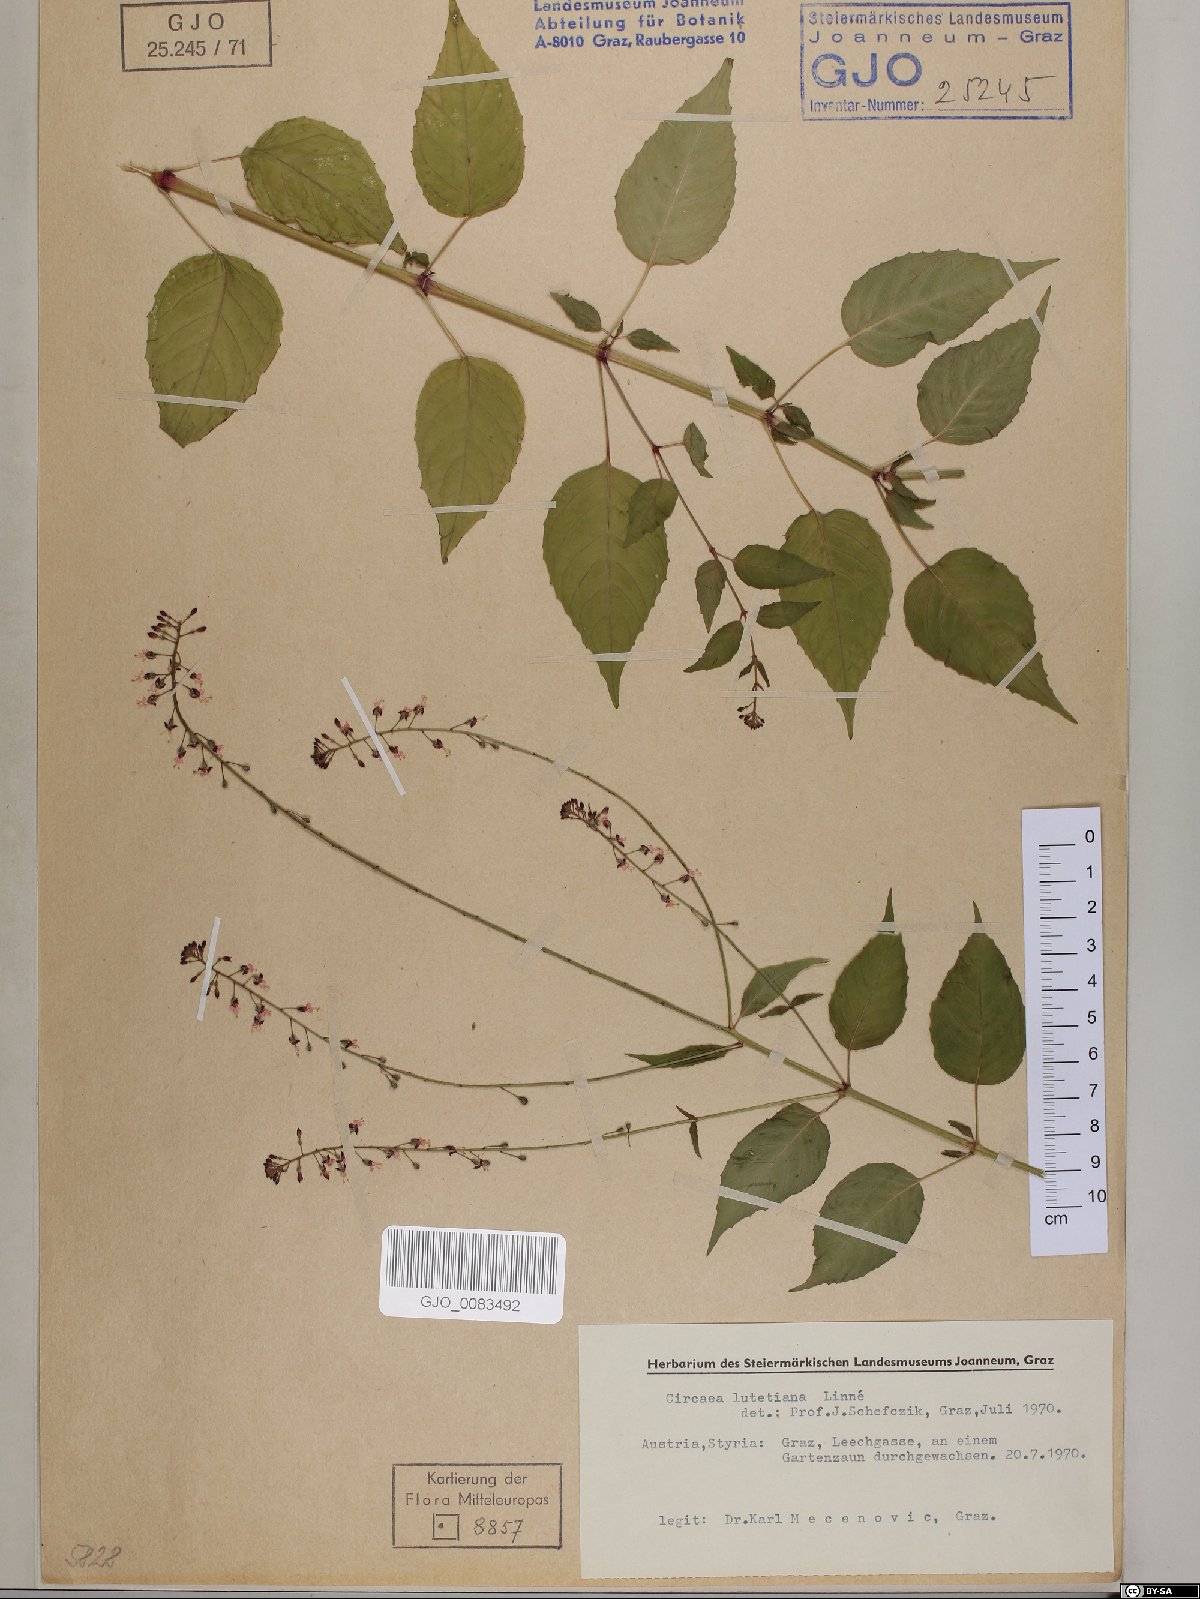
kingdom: Plantae
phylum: Tracheophyta
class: Magnoliopsida
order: Myrtales
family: Onagraceae
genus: Circaea
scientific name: Circaea lutetiana
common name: Enchanter's-nightshade
